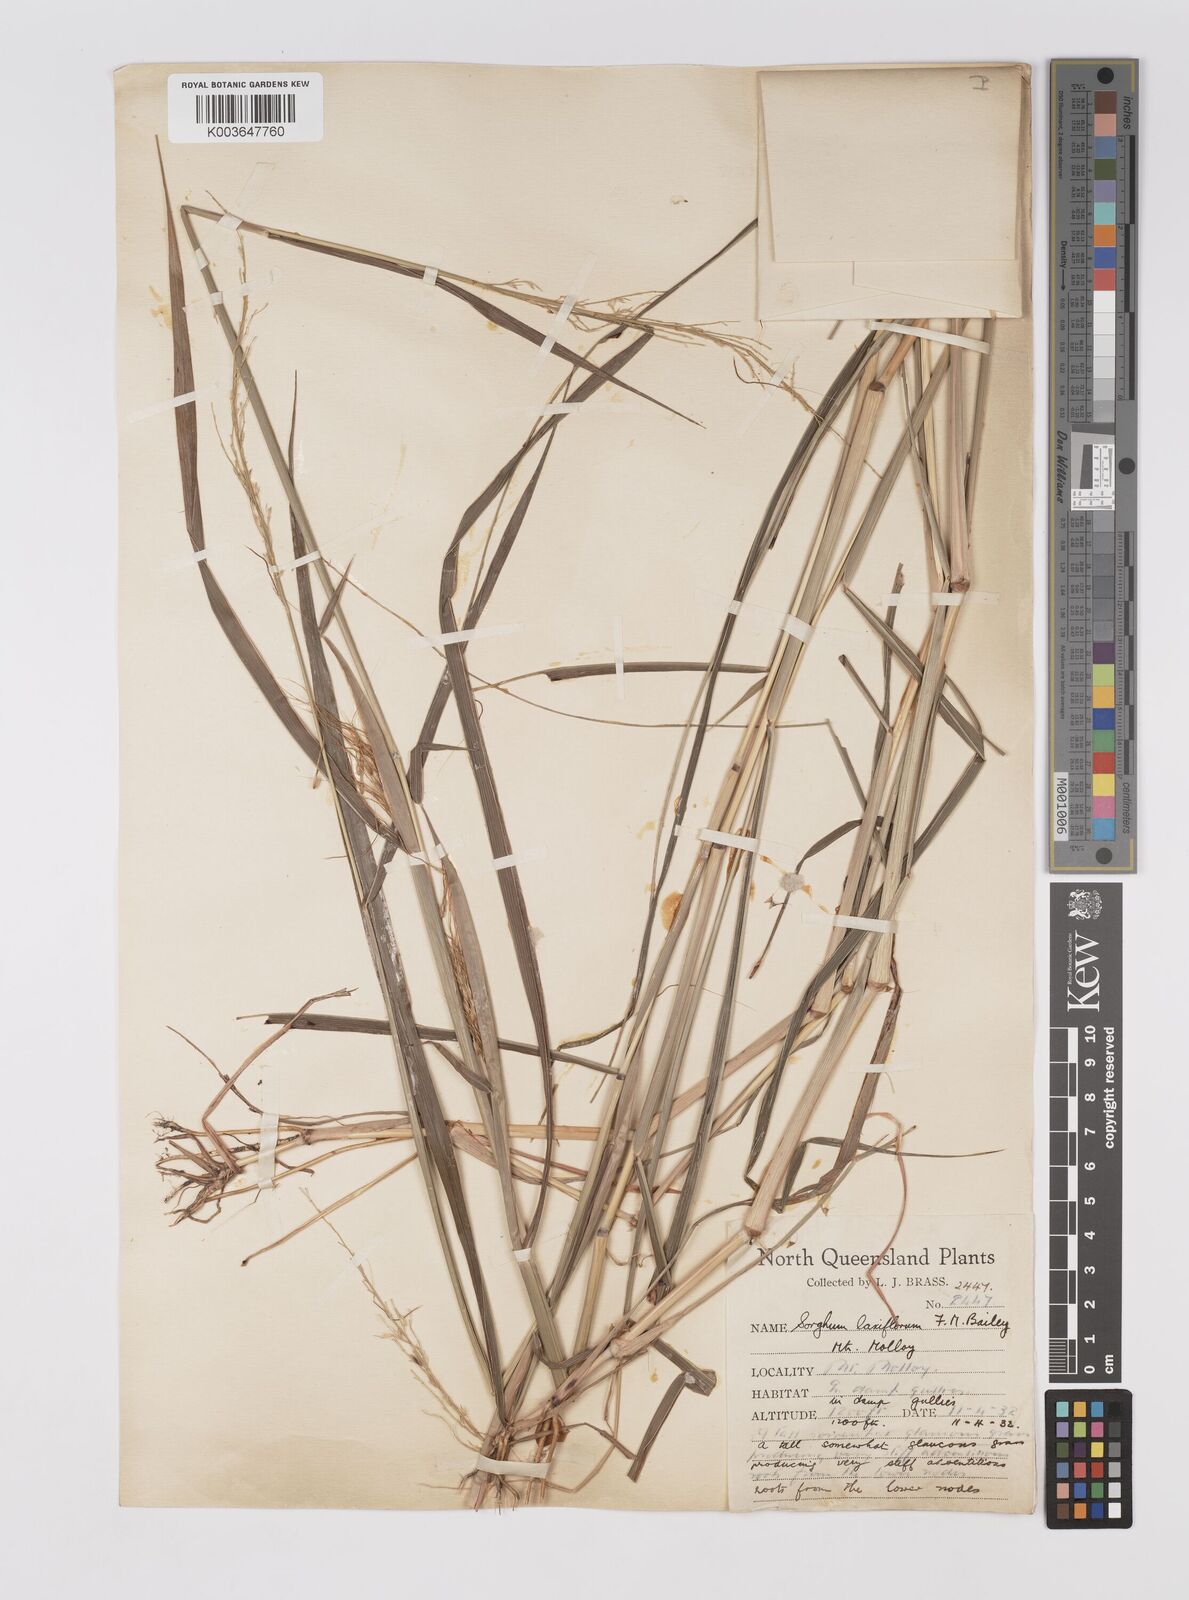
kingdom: Plantae
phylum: Tracheophyta
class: Liliopsida
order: Poales
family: Poaceae
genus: Sorghum
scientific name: Sorghum laxiflorum
